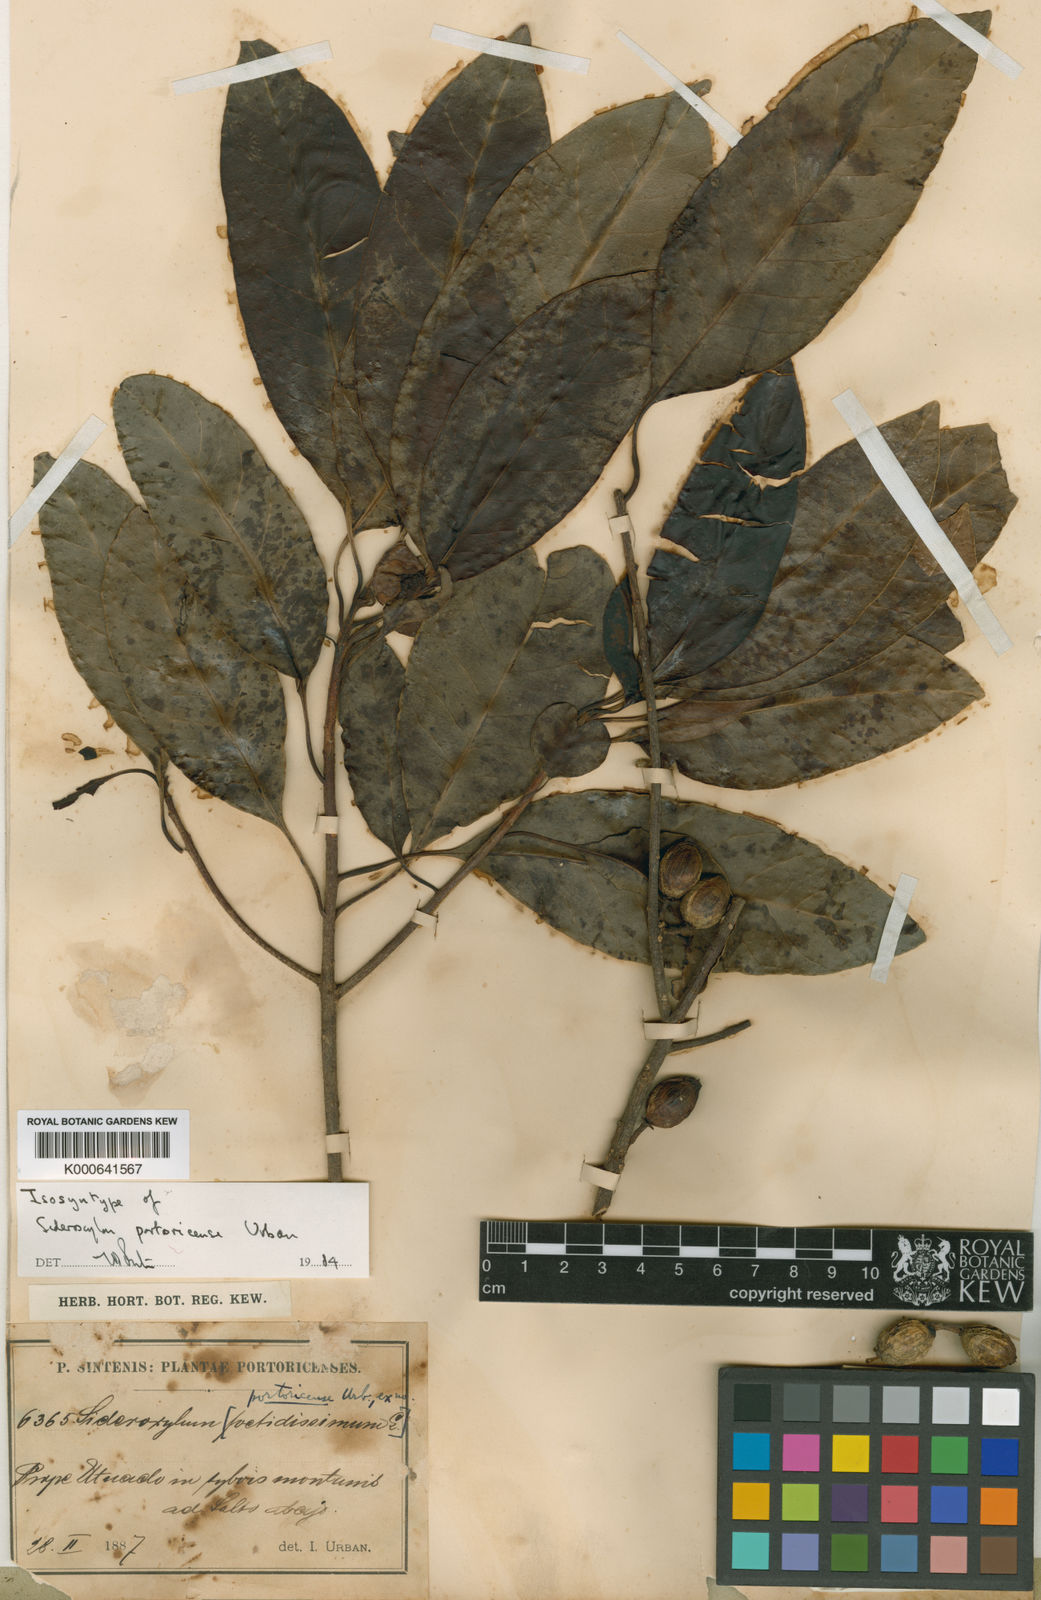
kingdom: Plantae
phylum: Tracheophyta
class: Magnoliopsida
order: Ericales
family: Sapotaceae
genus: Sideroxylon
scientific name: Sideroxylon portoricense
